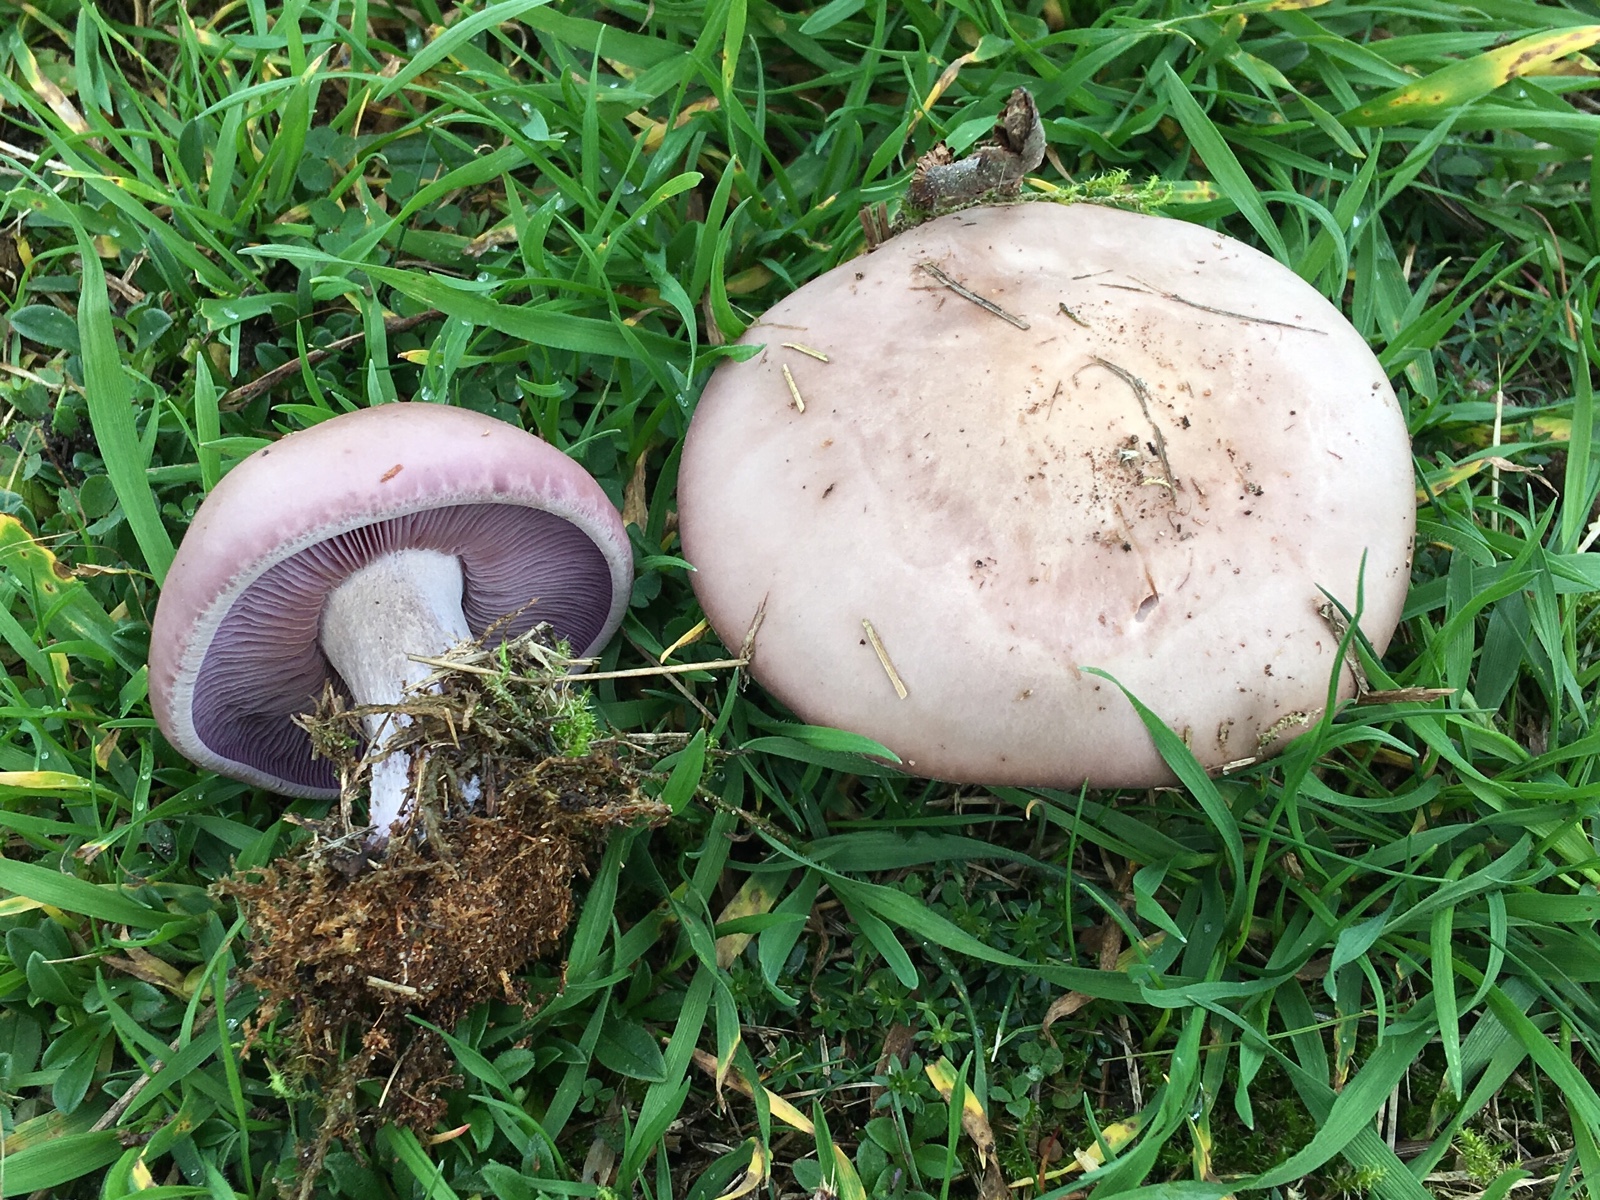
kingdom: Fungi
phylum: Basidiomycota
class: Agaricomycetes
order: Agaricales
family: Tricholomataceae
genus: Lepista
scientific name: Lepista nuda
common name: violet hekseringshat
